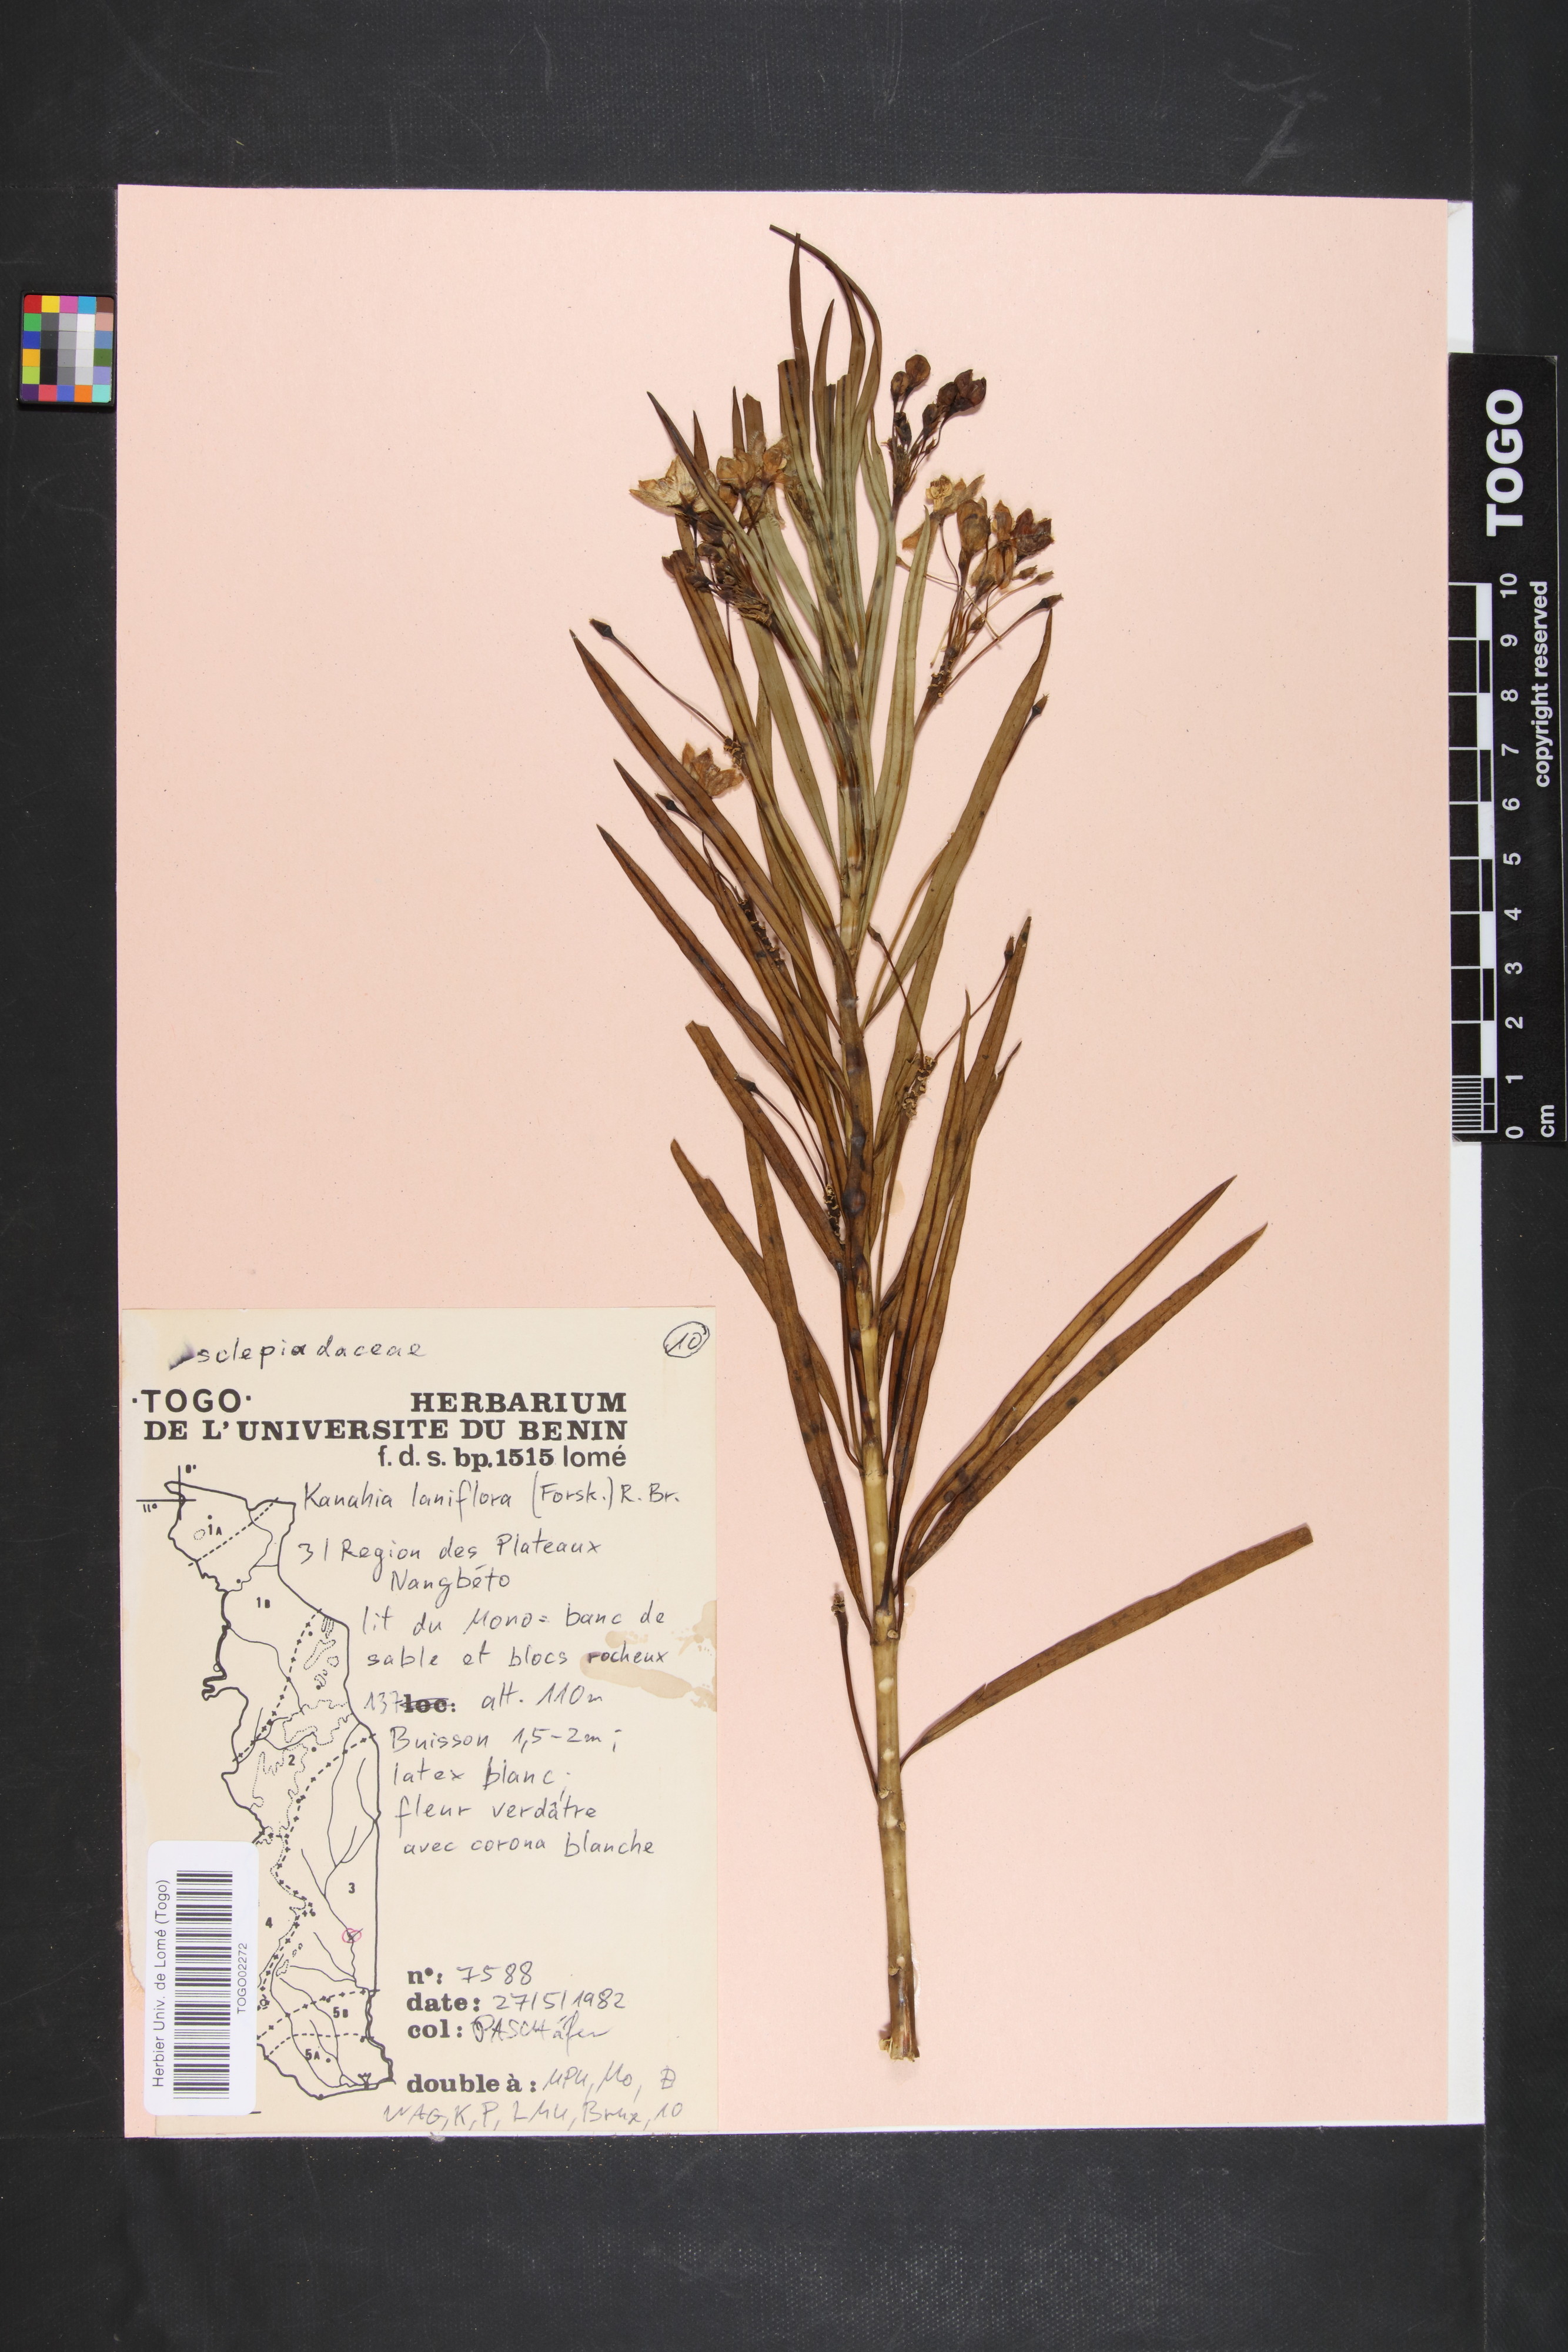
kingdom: Plantae
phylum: Tracheophyta
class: Magnoliopsida
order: Gentianales
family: Apocynaceae
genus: Kanahia
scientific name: Kanahia laniflora
